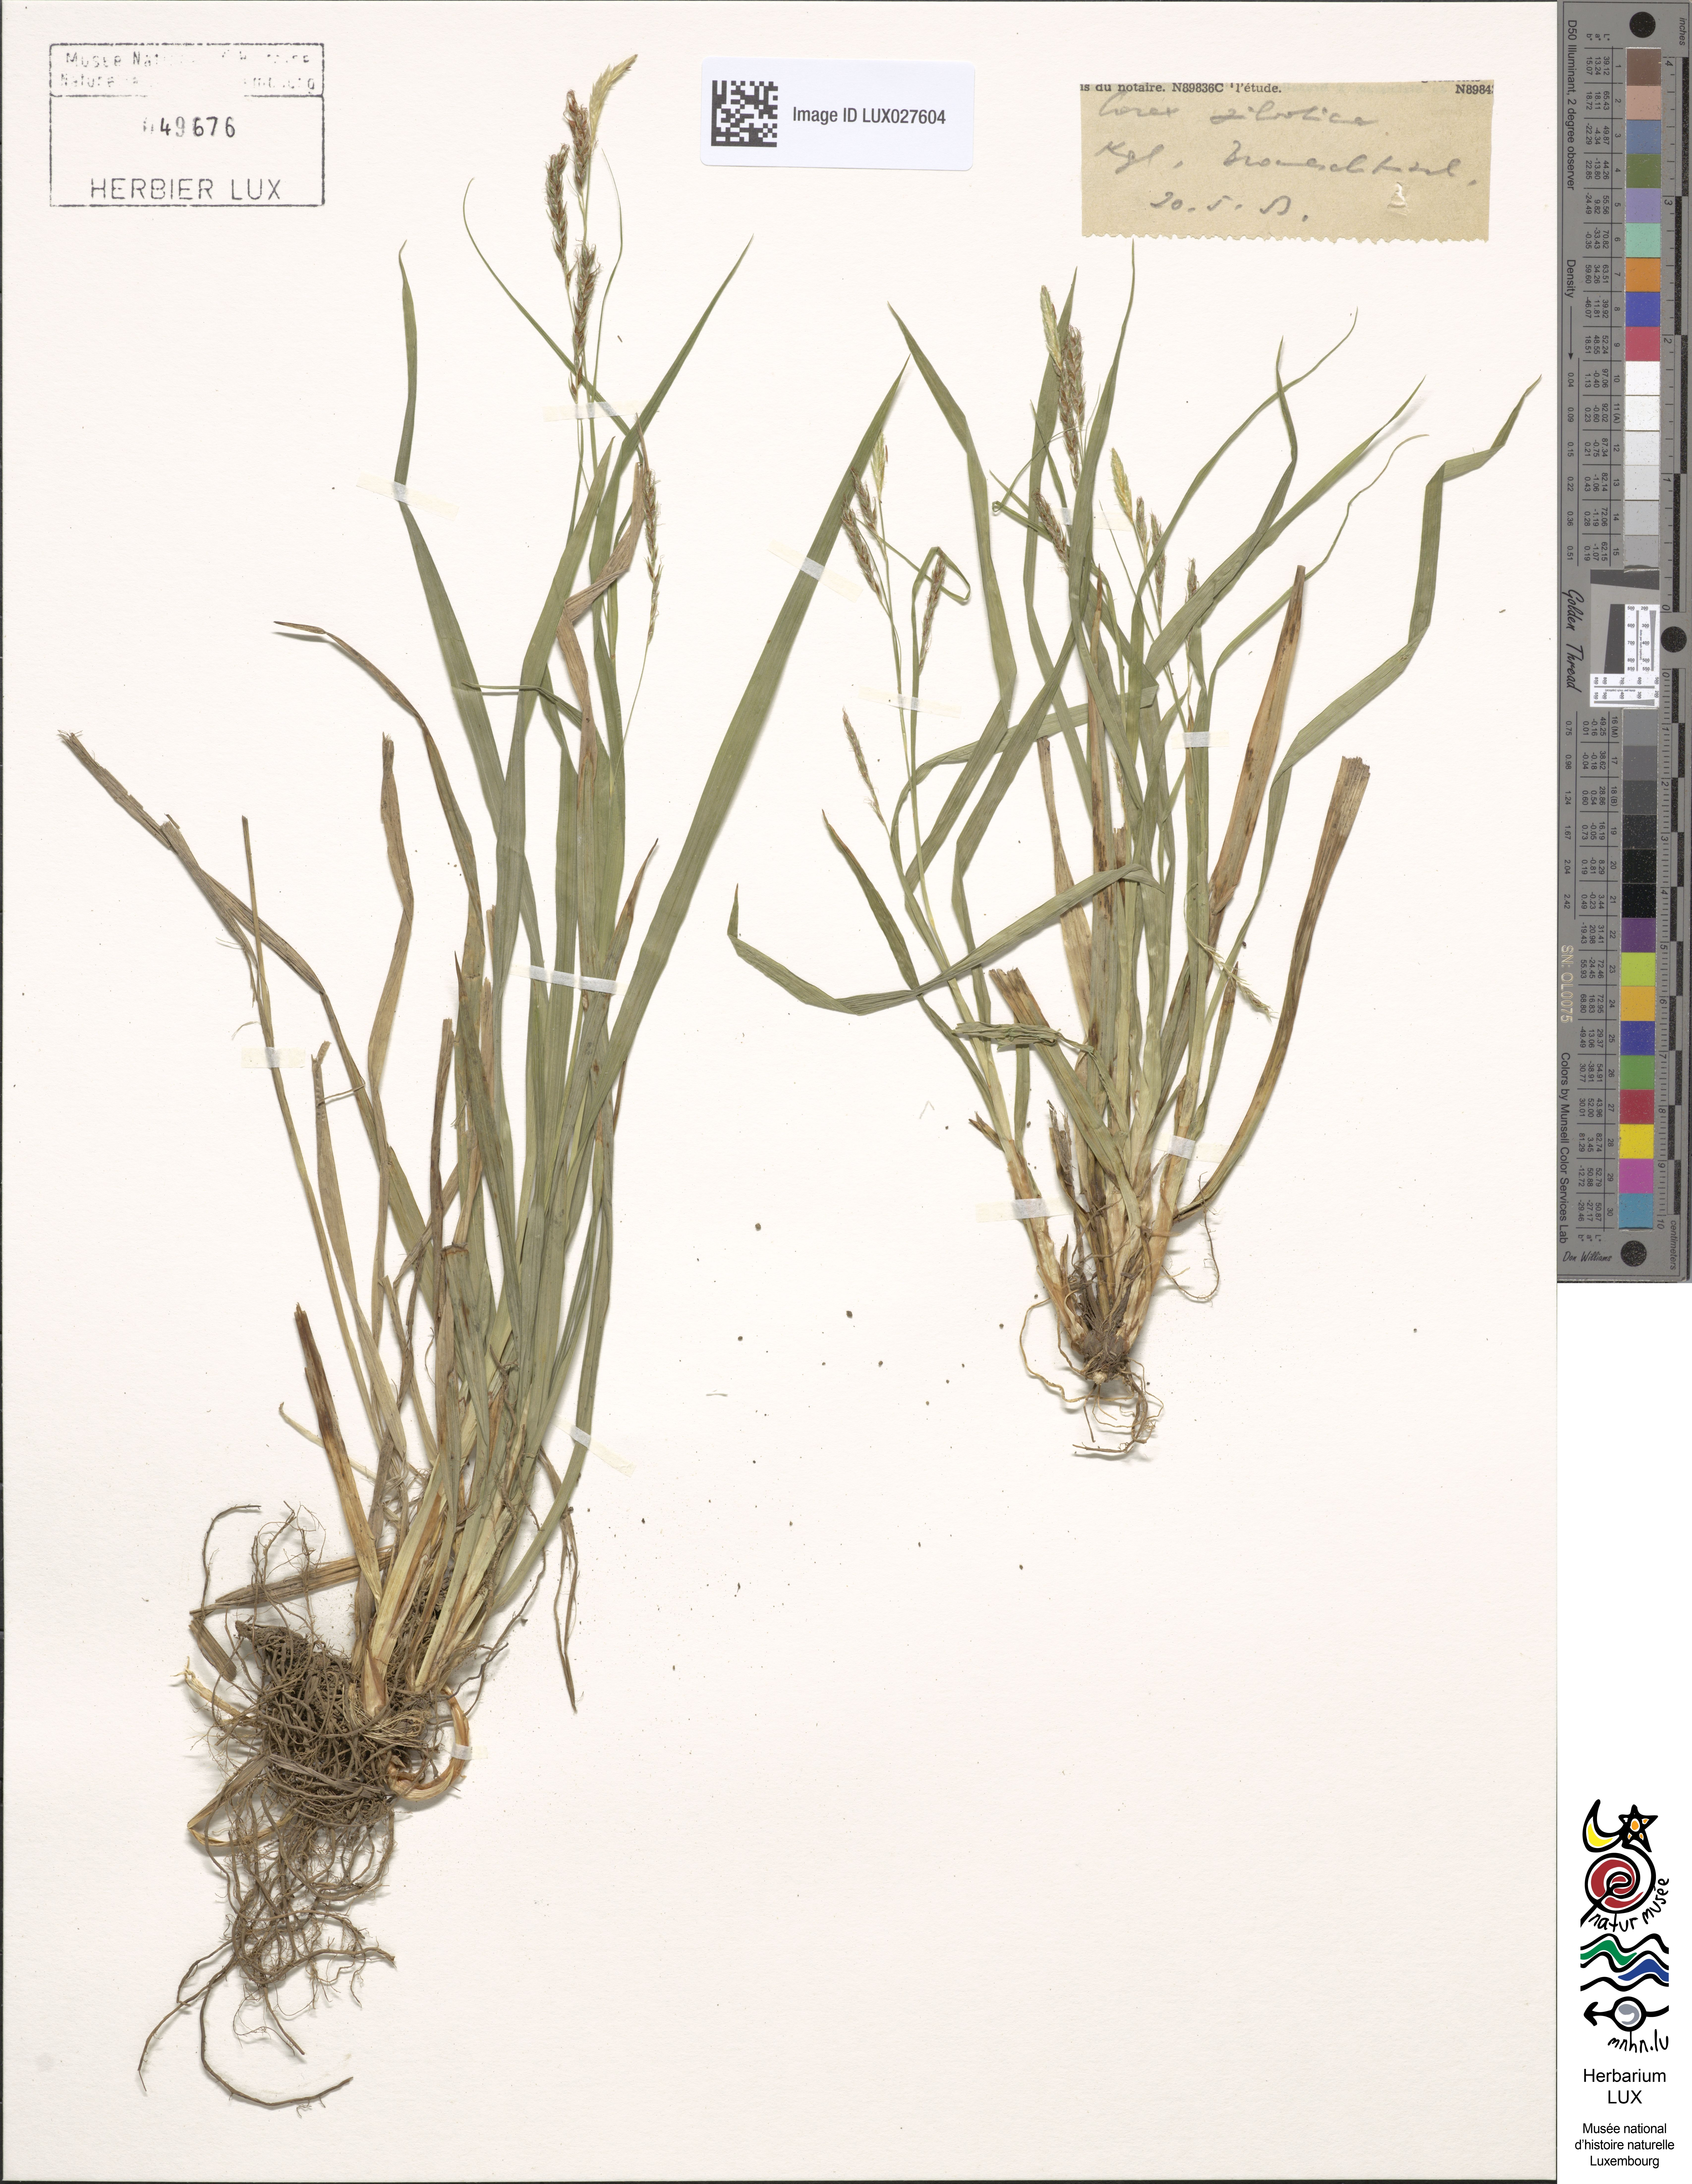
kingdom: Plantae
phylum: Tracheophyta
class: Liliopsida
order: Poales
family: Cyperaceae
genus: Carex
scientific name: Carex sylvatica
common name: Wood-sedge
